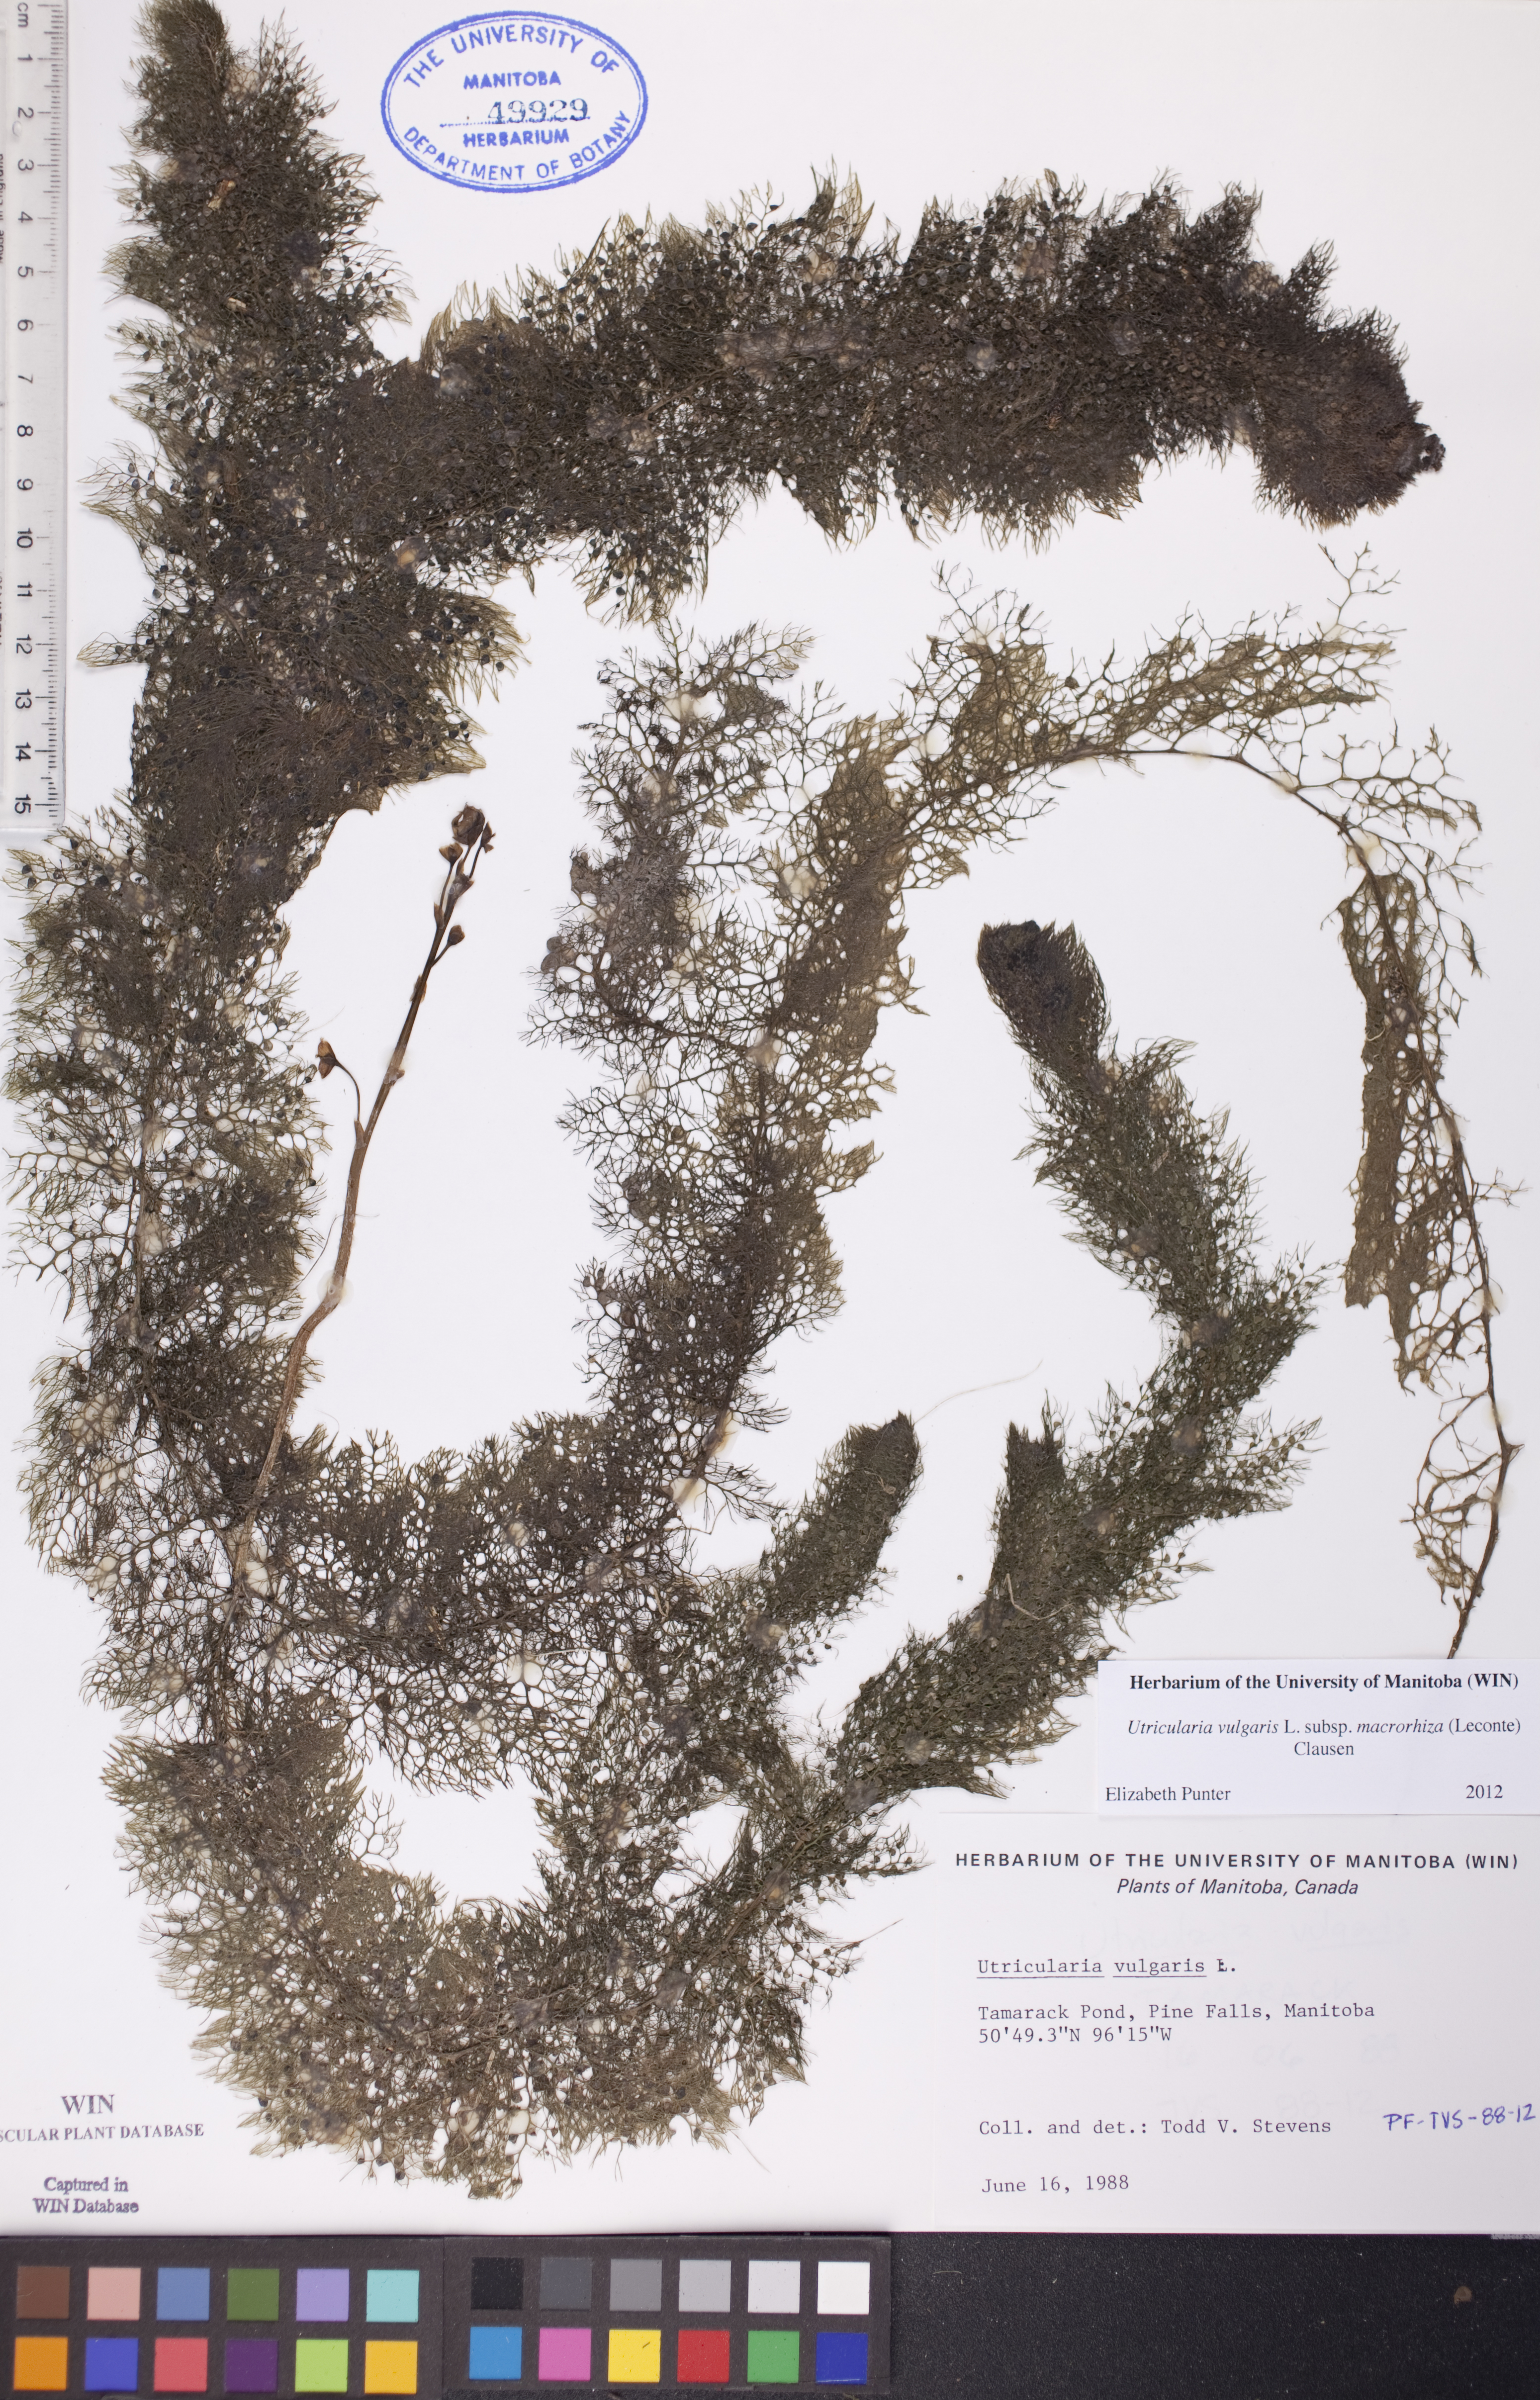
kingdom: Plantae
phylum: Tracheophyta
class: Magnoliopsida
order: Lamiales
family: Lentibulariaceae
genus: Utricularia
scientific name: Utricularia macrorhiza
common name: Common bladderwort
